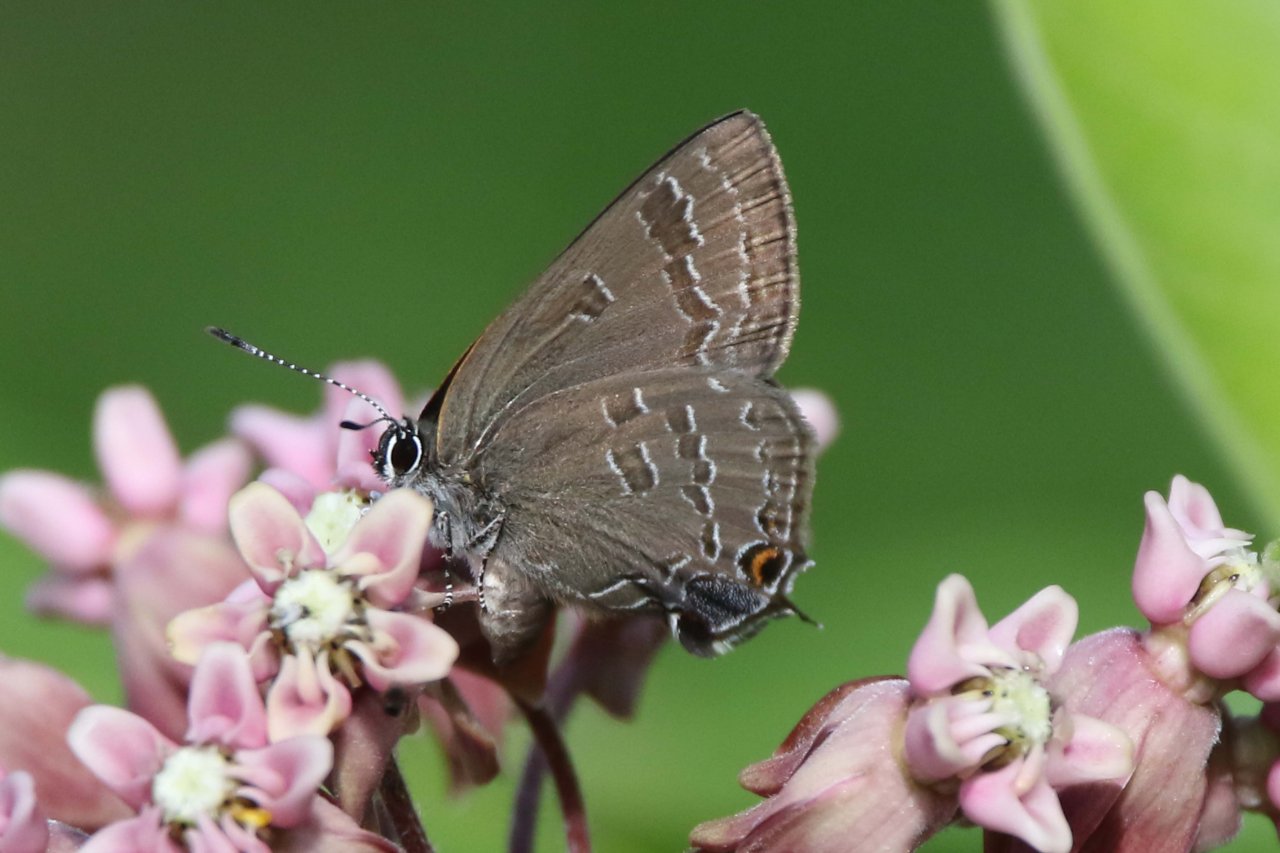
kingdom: Animalia
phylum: Arthropoda
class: Insecta
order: Lepidoptera
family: Lycaenidae
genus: Strymon
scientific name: Strymon caryaevorus
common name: Hickory Hairstreak
